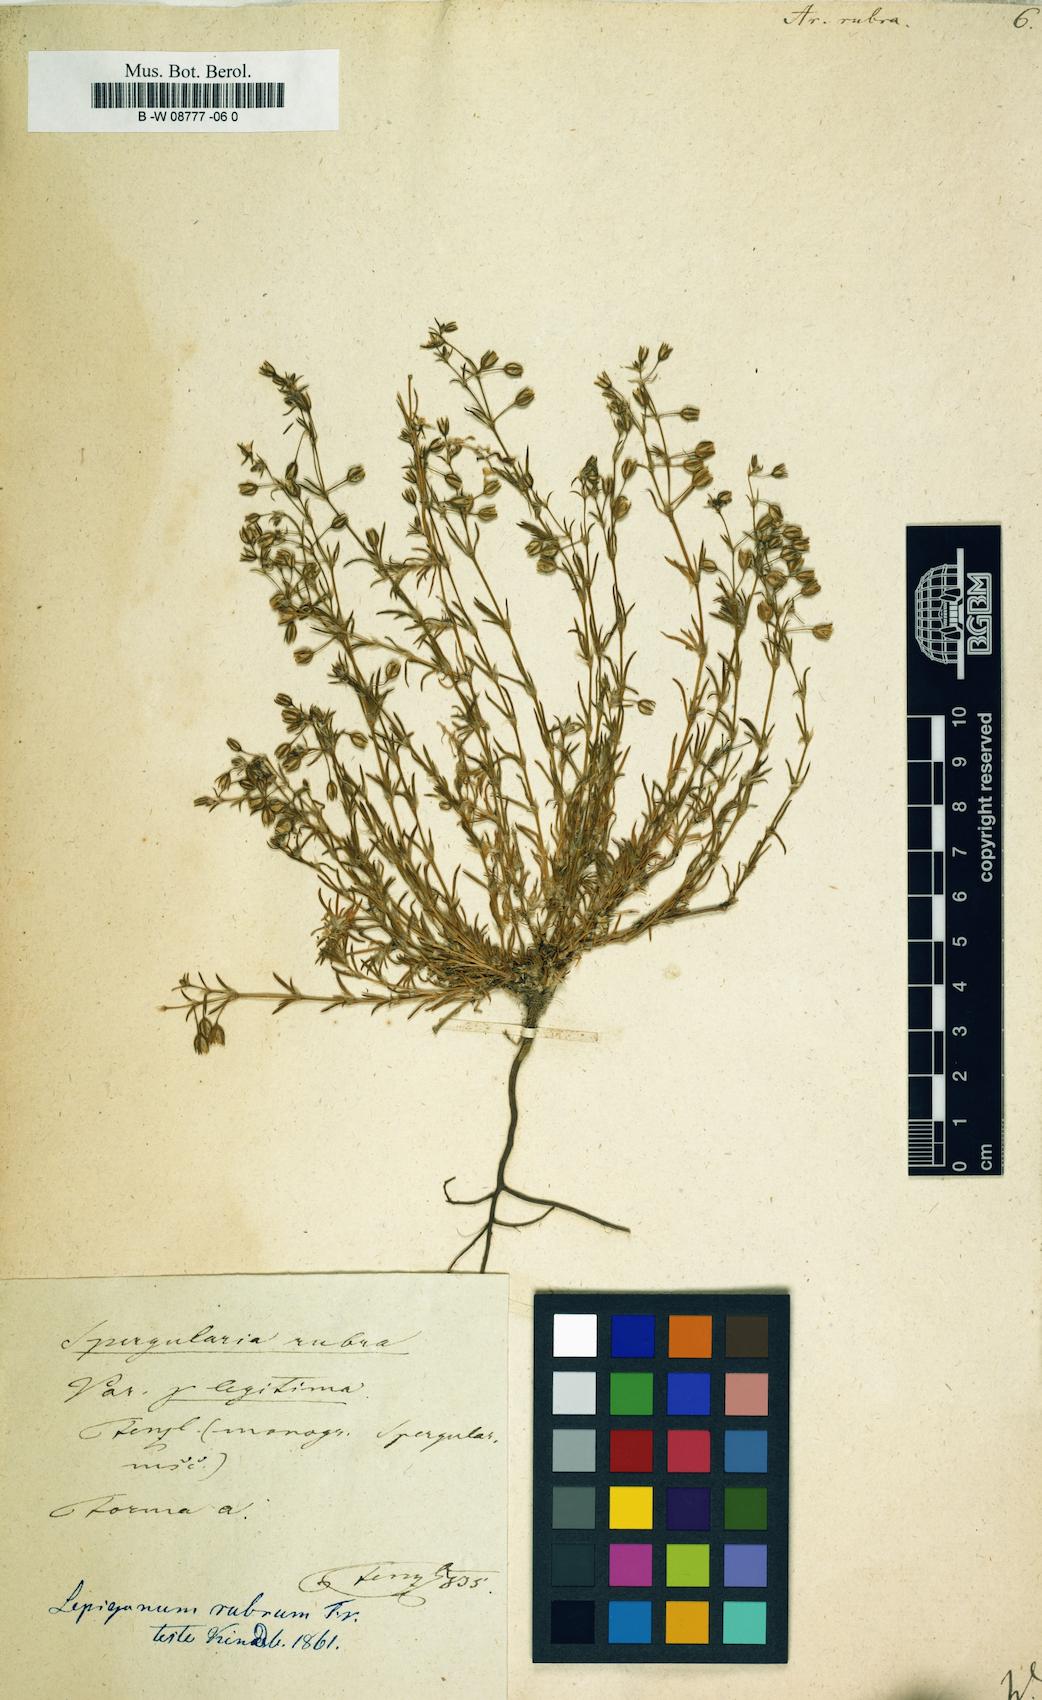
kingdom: Plantae
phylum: Tracheophyta
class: Magnoliopsida
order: Caryophyllales
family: Caryophyllaceae
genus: Spergularia
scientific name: Spergularia rubra
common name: Red sand-spurrey
